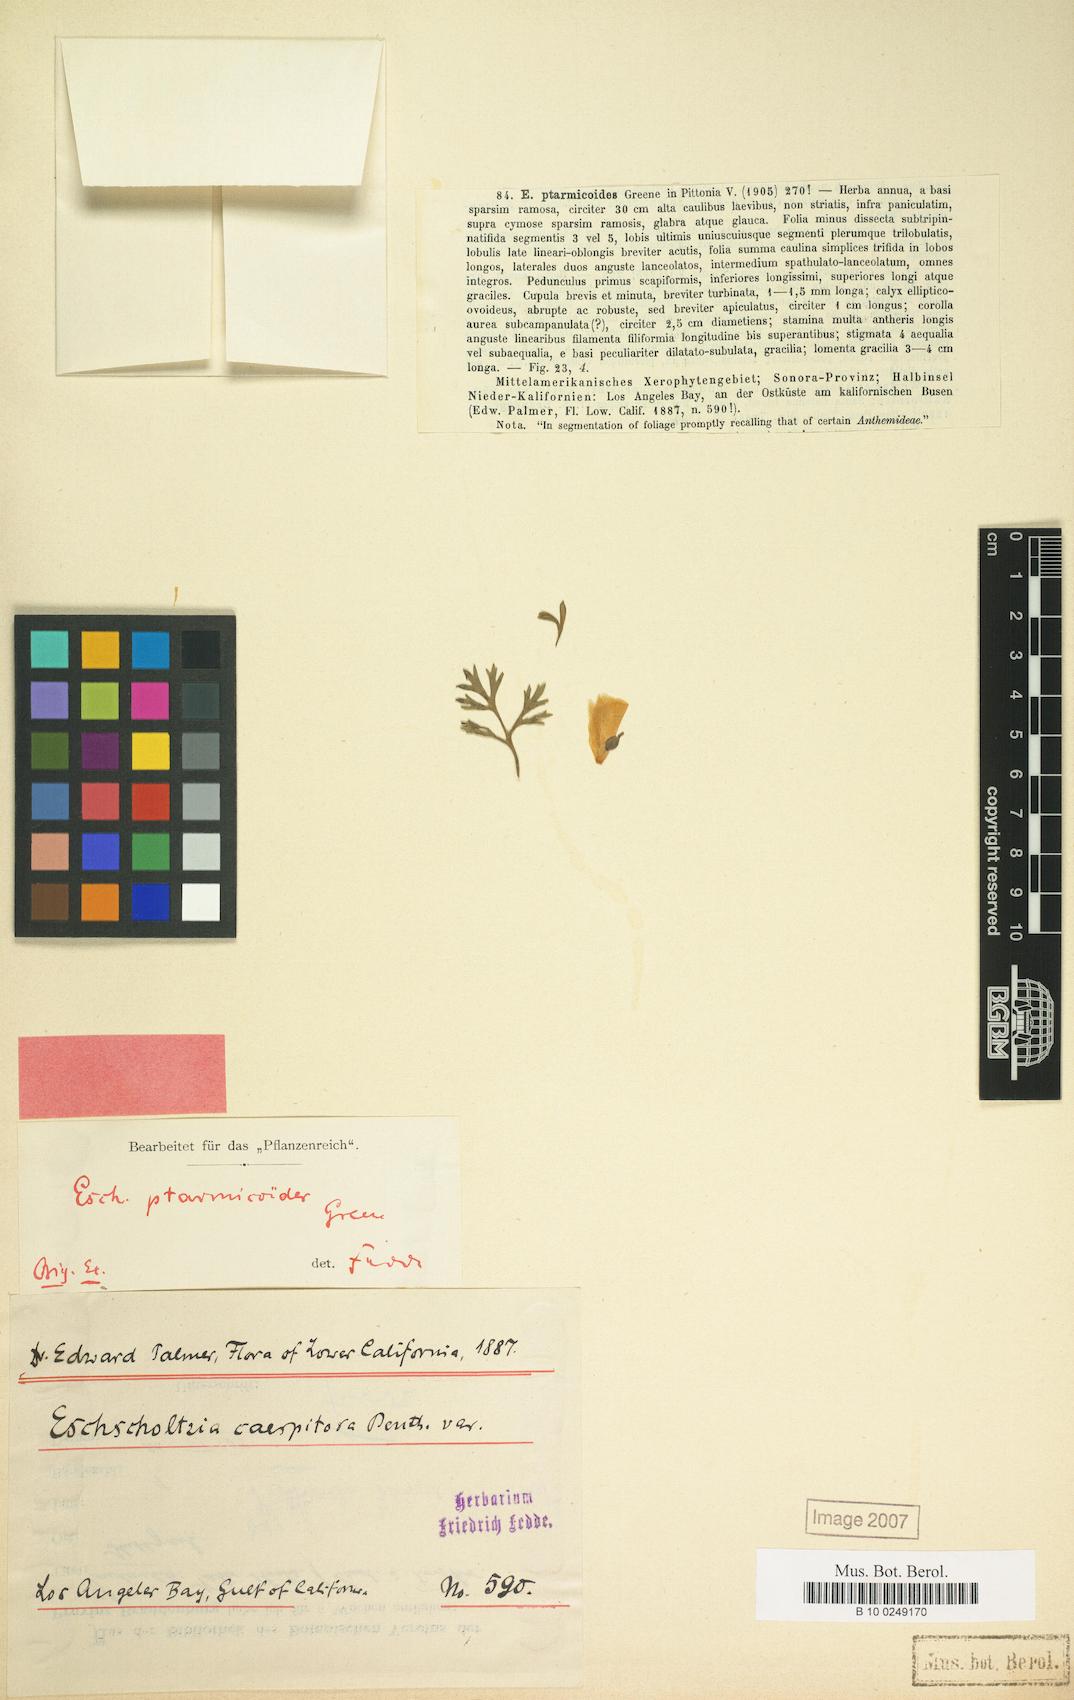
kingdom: Plantae
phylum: Tracheophyta
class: Magnoliopsida
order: Ranunculales
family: Papaveraceae
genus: Eschscholzia
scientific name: Eschscholzia californica
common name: California poppy
